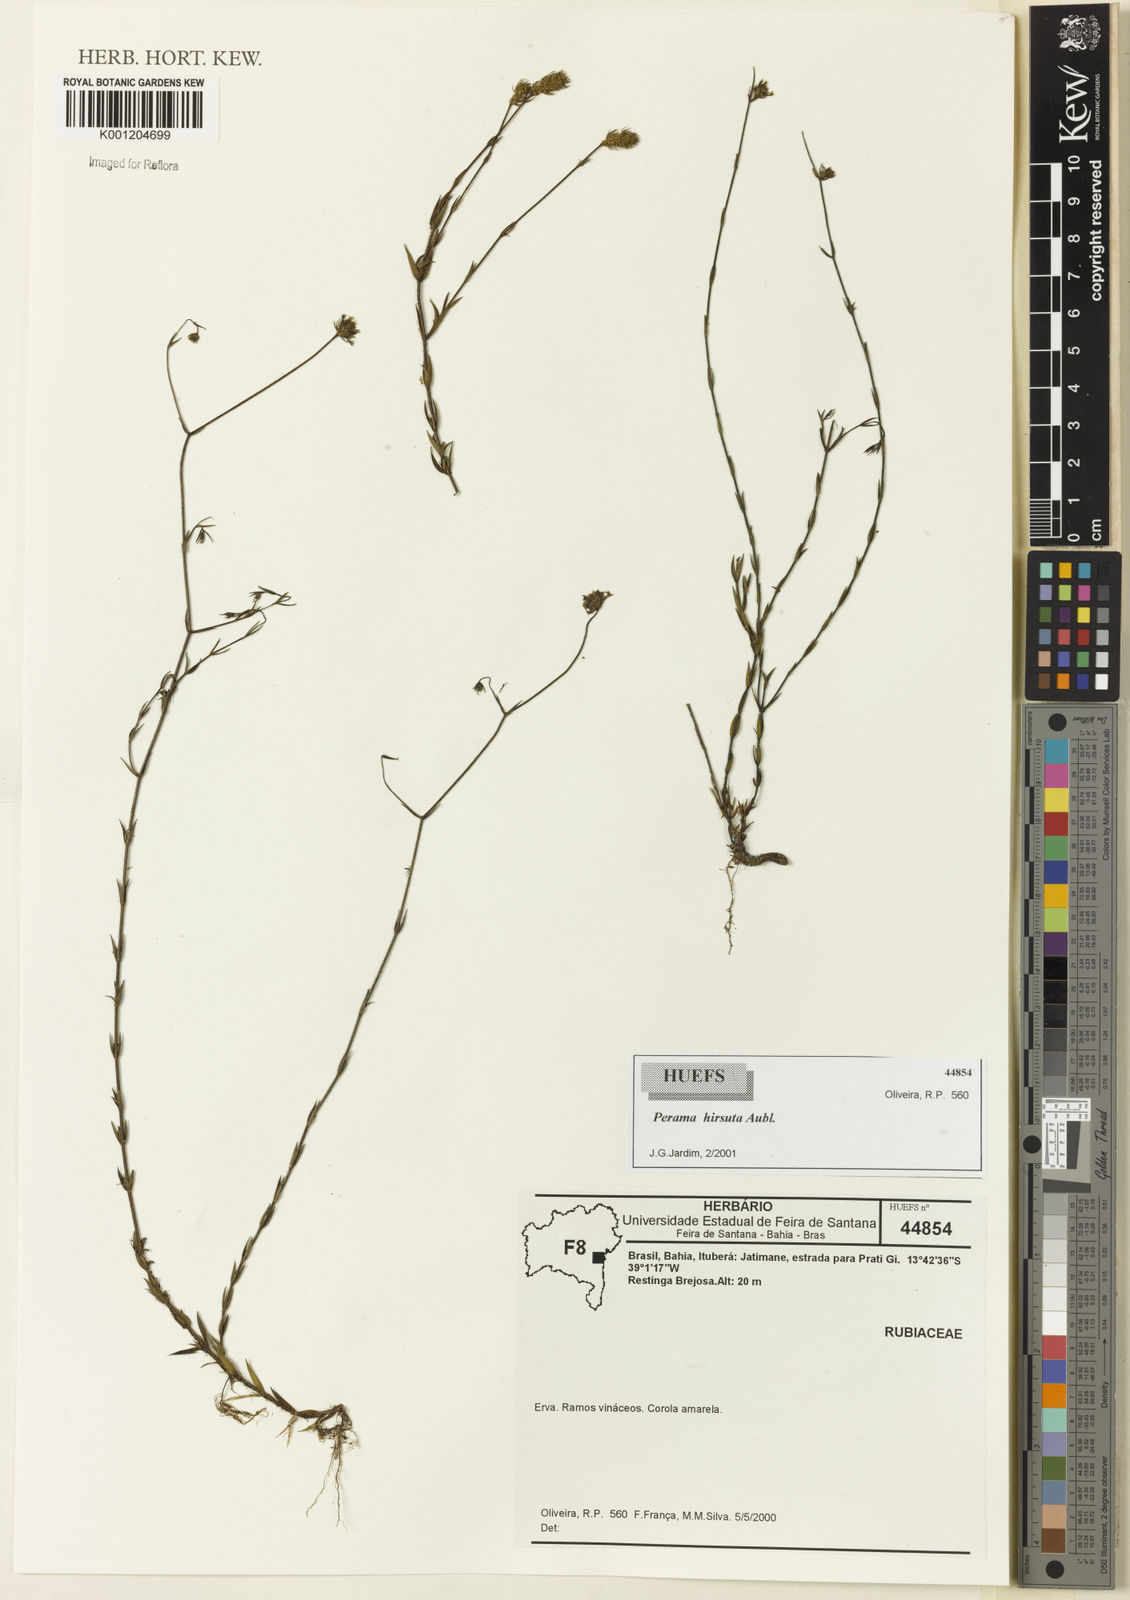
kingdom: Plantae
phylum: Tracheophyta
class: Magnoliopsida
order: Gentianales
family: Rubiaceae
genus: Perama
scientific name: Perama hirsuta
